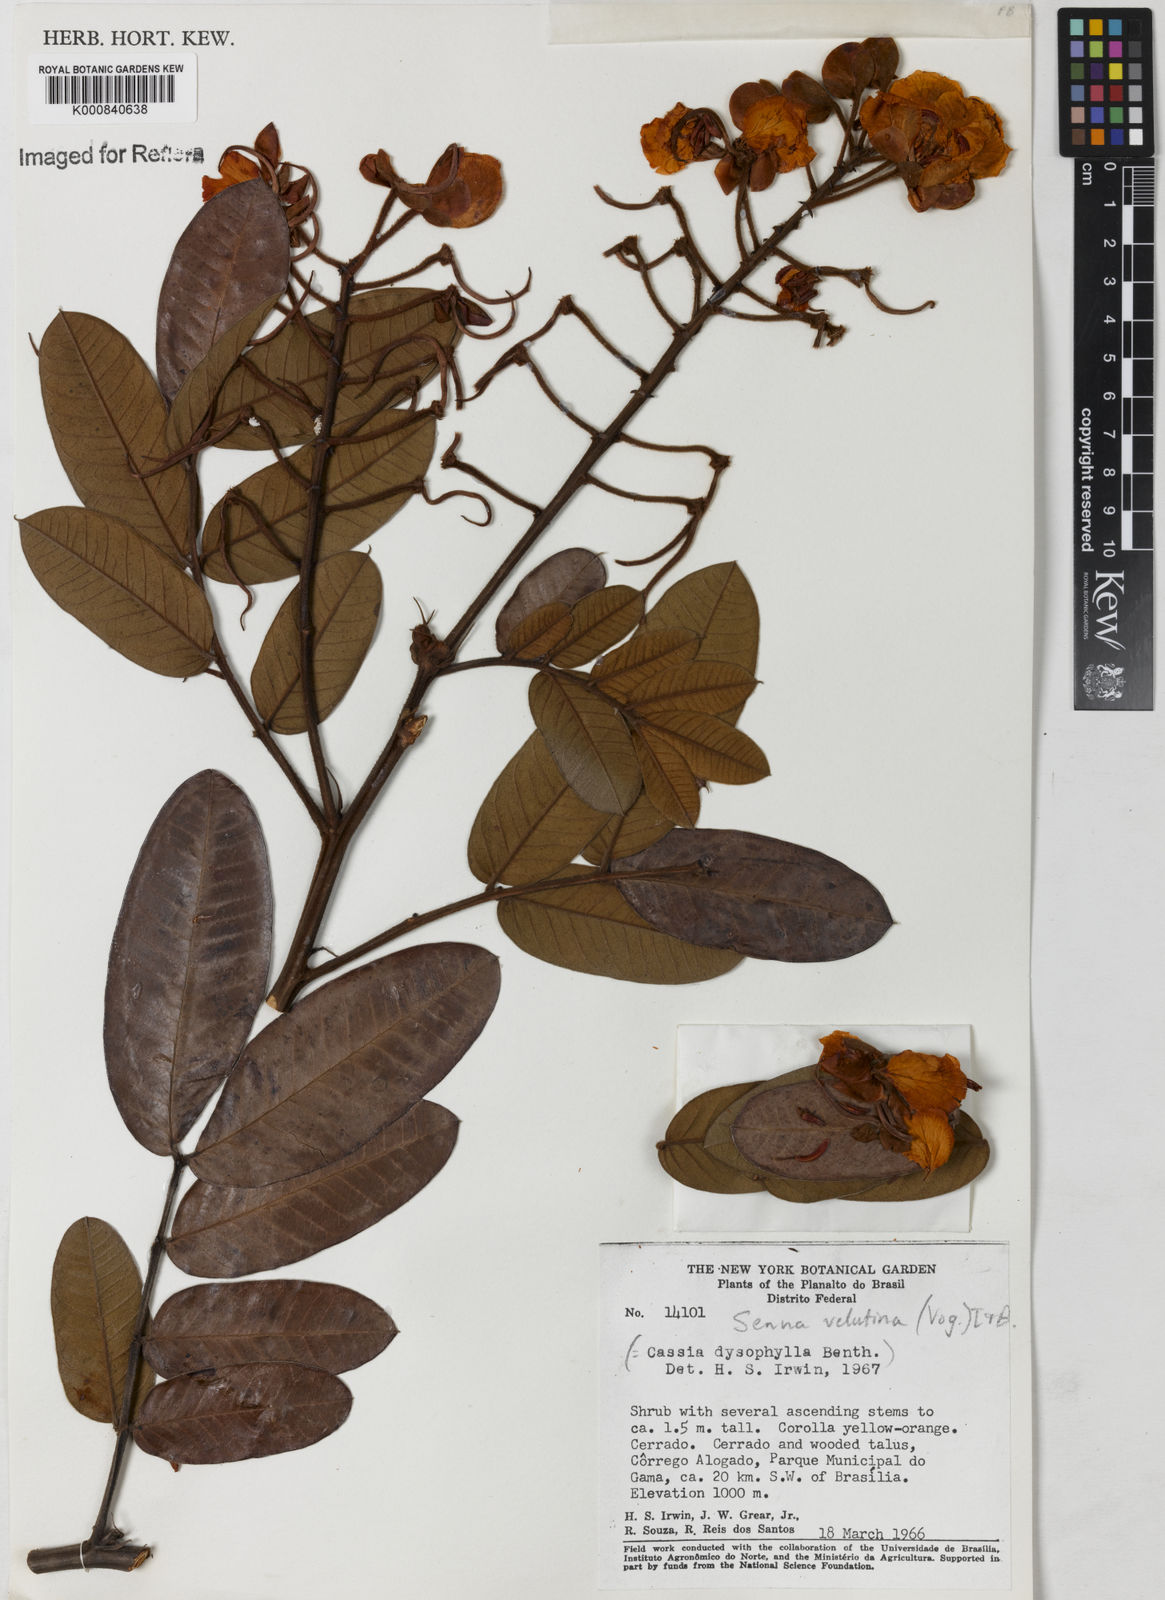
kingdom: Plantae
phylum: Tracheophyta
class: Magnoliopsida
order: Fabales
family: Fabaceae
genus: Senna
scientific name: Senna velutina
